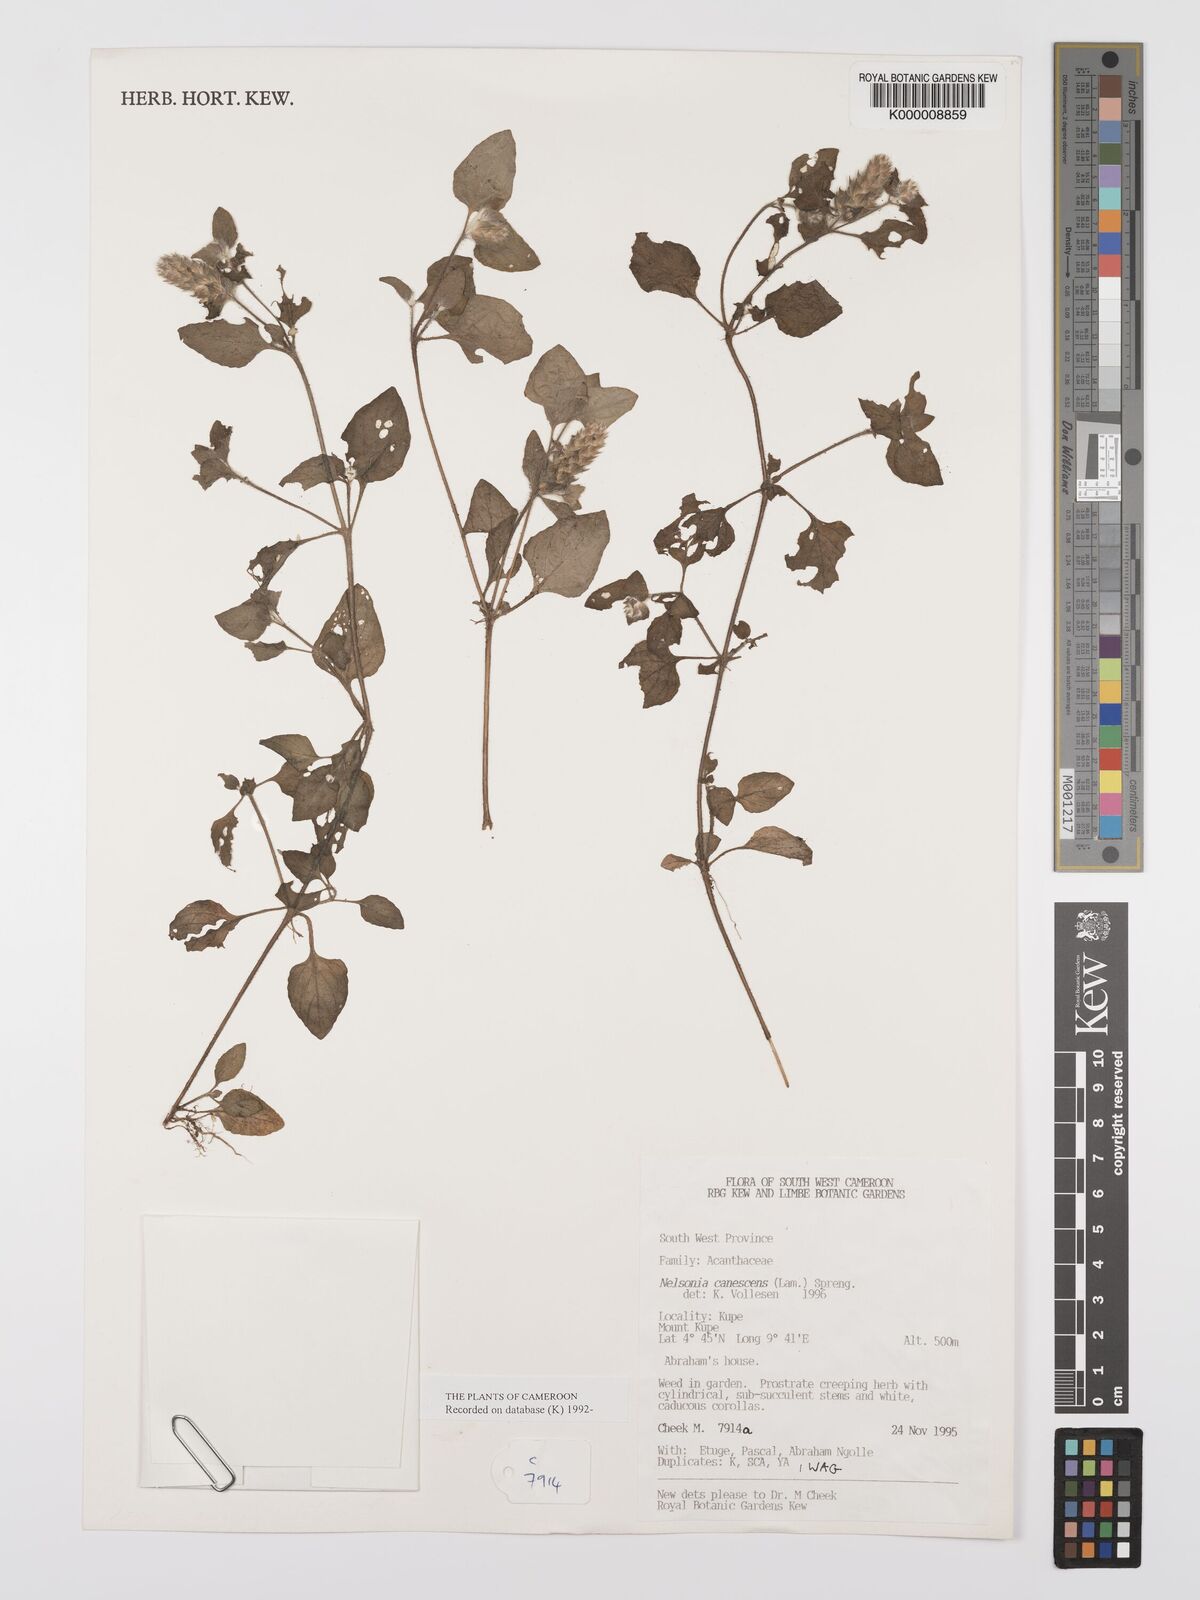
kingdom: Plantae
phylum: Tracheophyta
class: Magnoliopsida
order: Lamiales
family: Acanthaceae
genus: Nelsonia
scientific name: Nelsonia canescens
